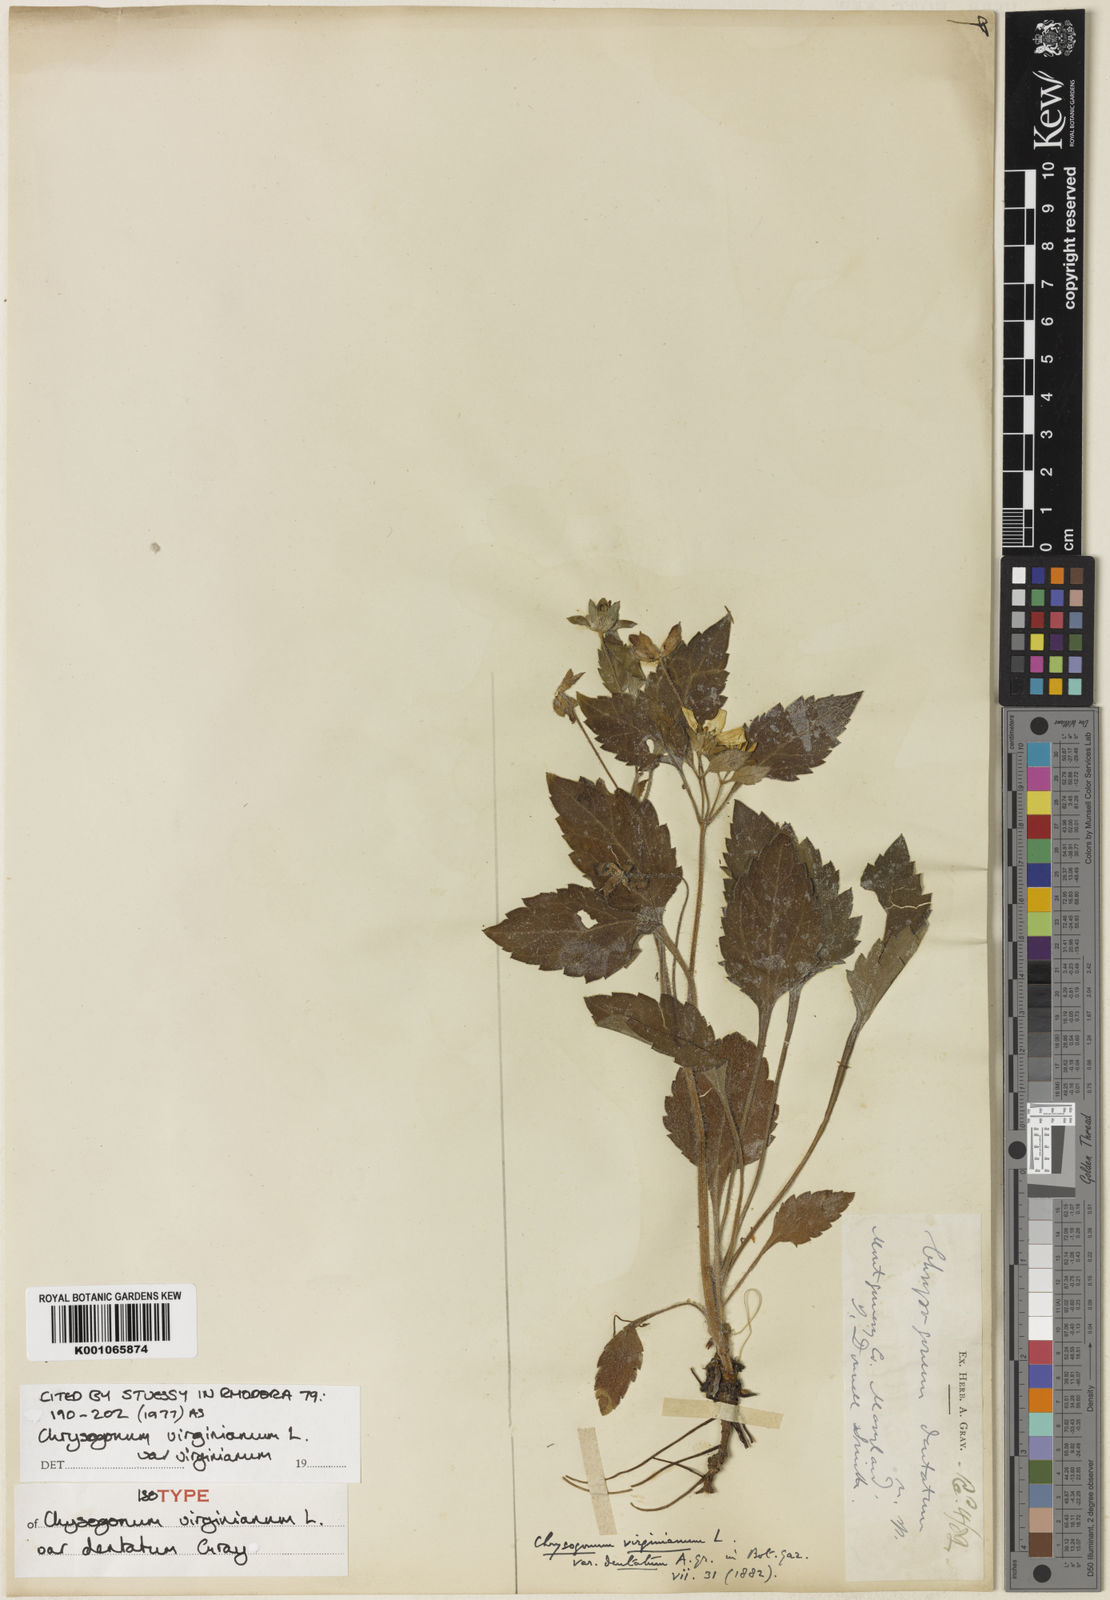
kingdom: Plantae
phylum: Tracheophyta
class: Magnoliopsida
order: Asterales
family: Asteraceae
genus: Chrysogonum
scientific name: Chrysogonum virginianum
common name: Golden-knee
